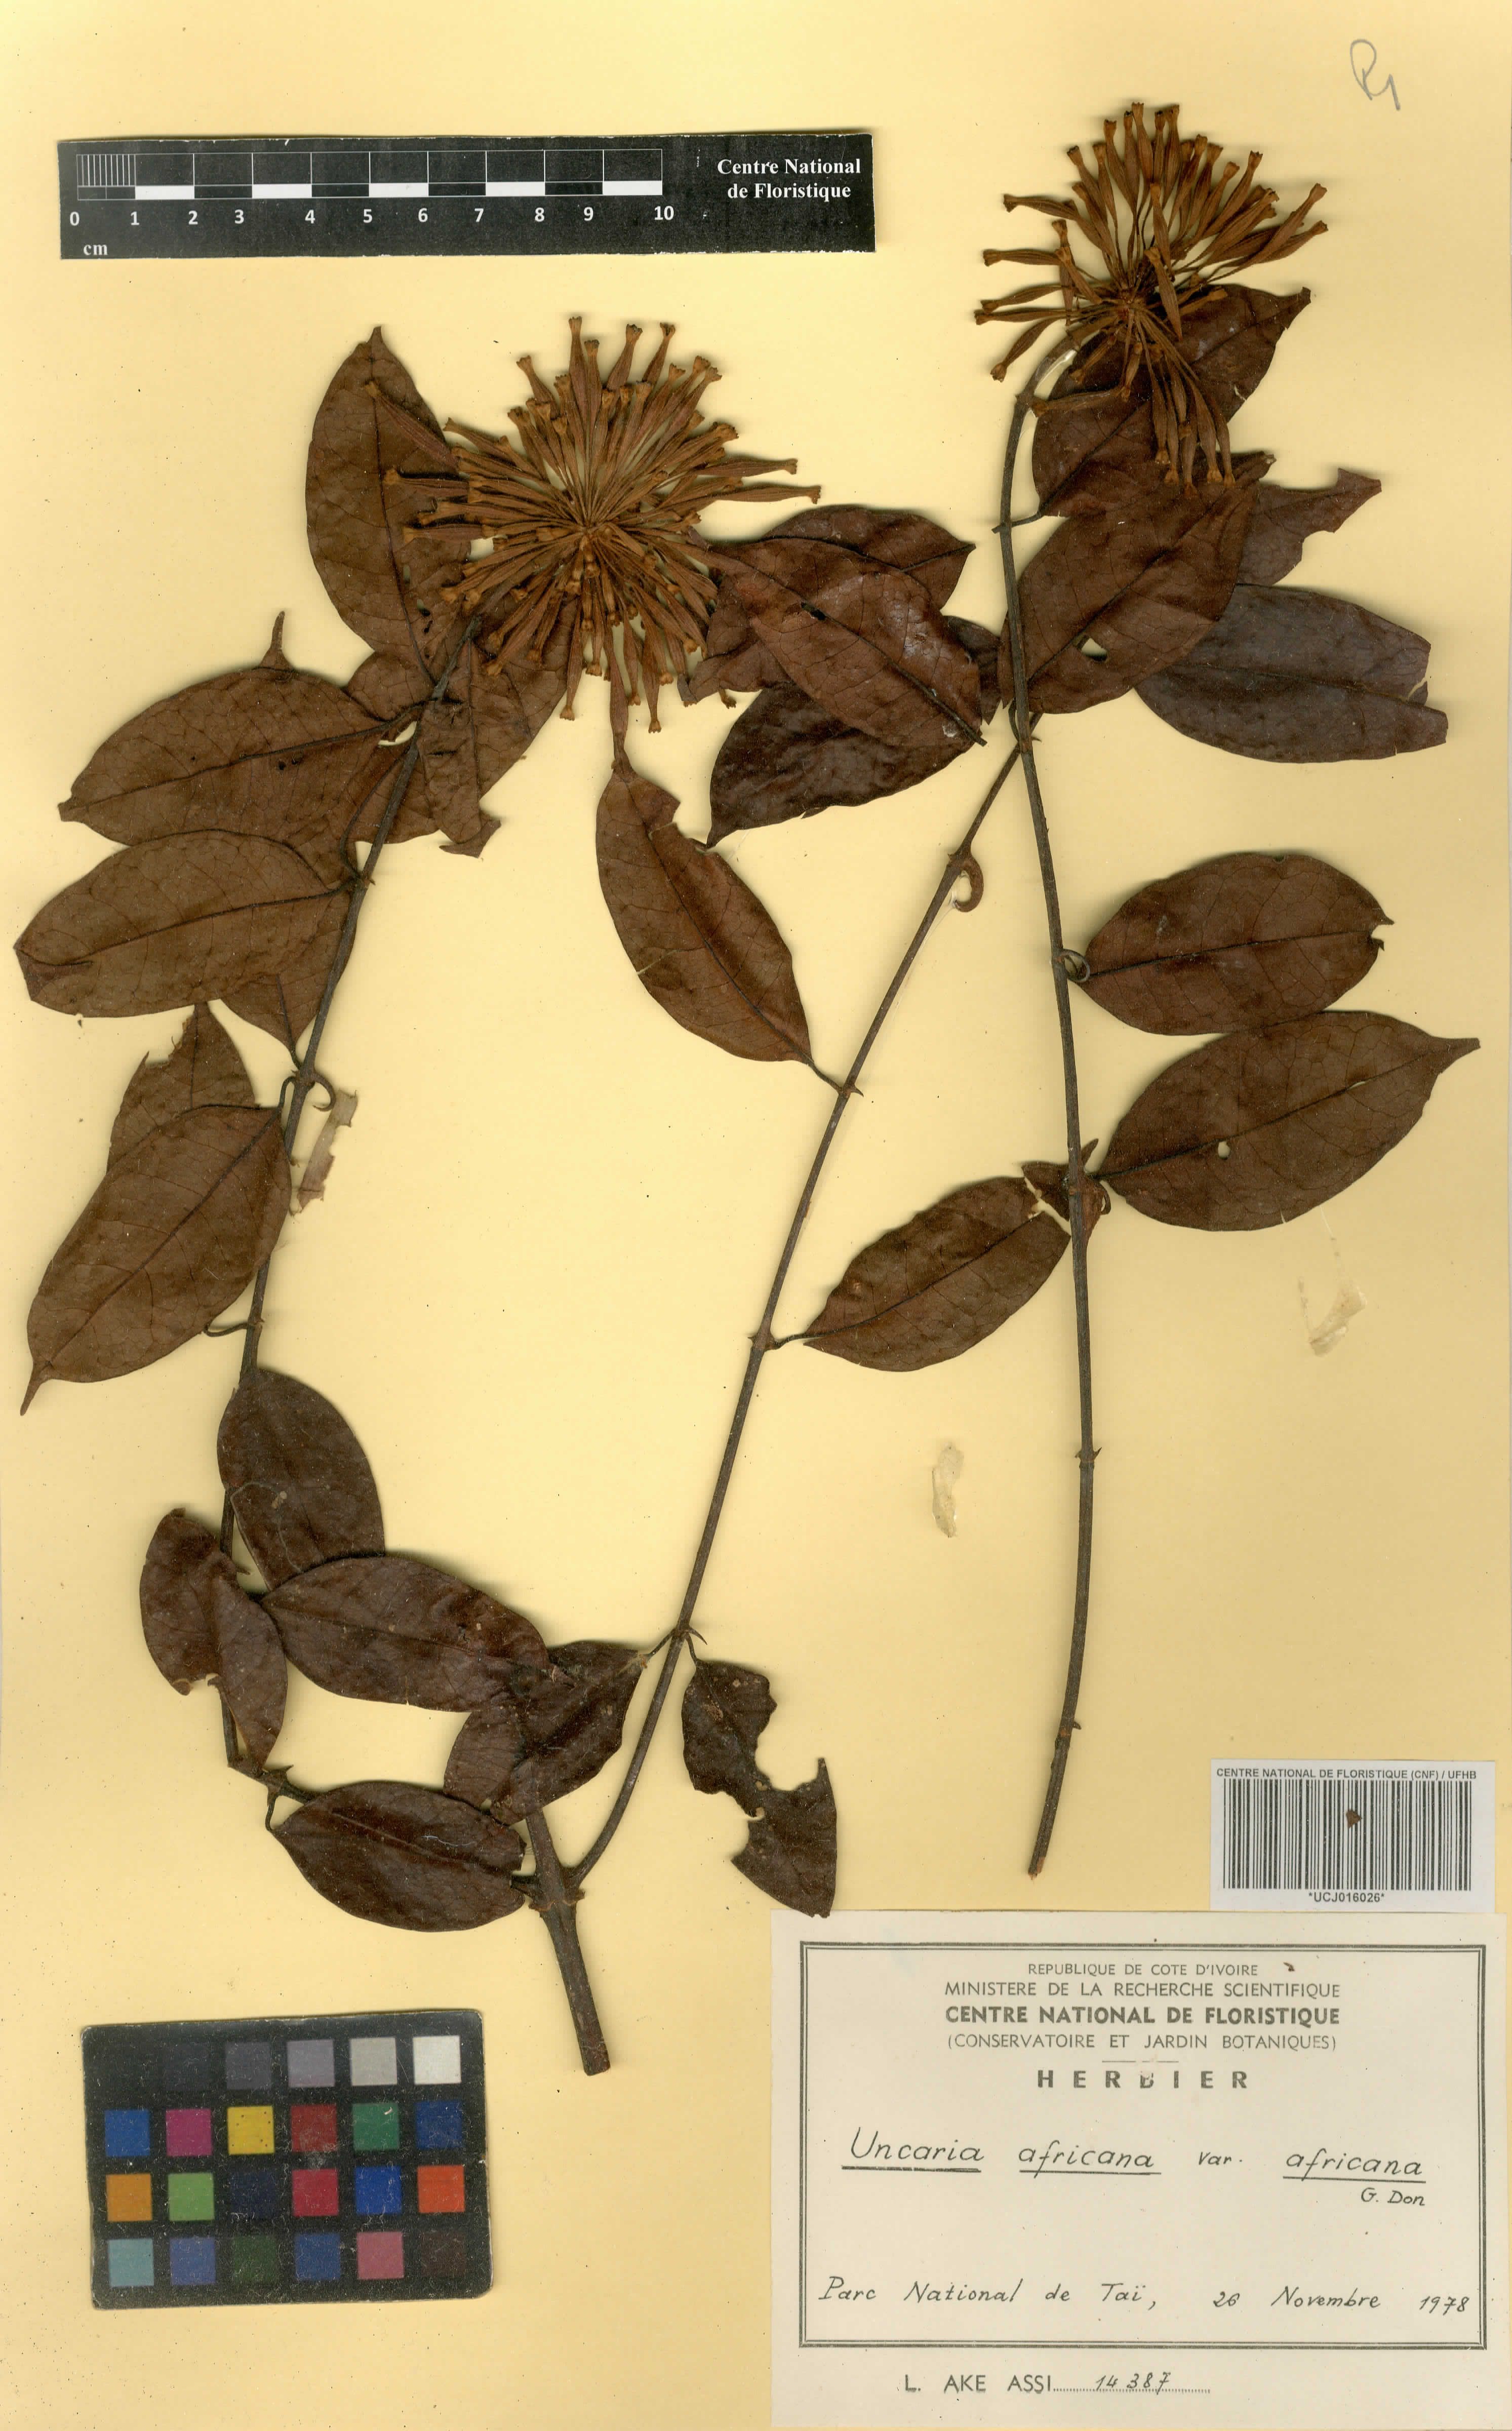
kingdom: Plantae
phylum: Tracheophyta
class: Magnoliopsida
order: Gentianales
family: Rubiaceae
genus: Uncaria
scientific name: Uncaria africana
